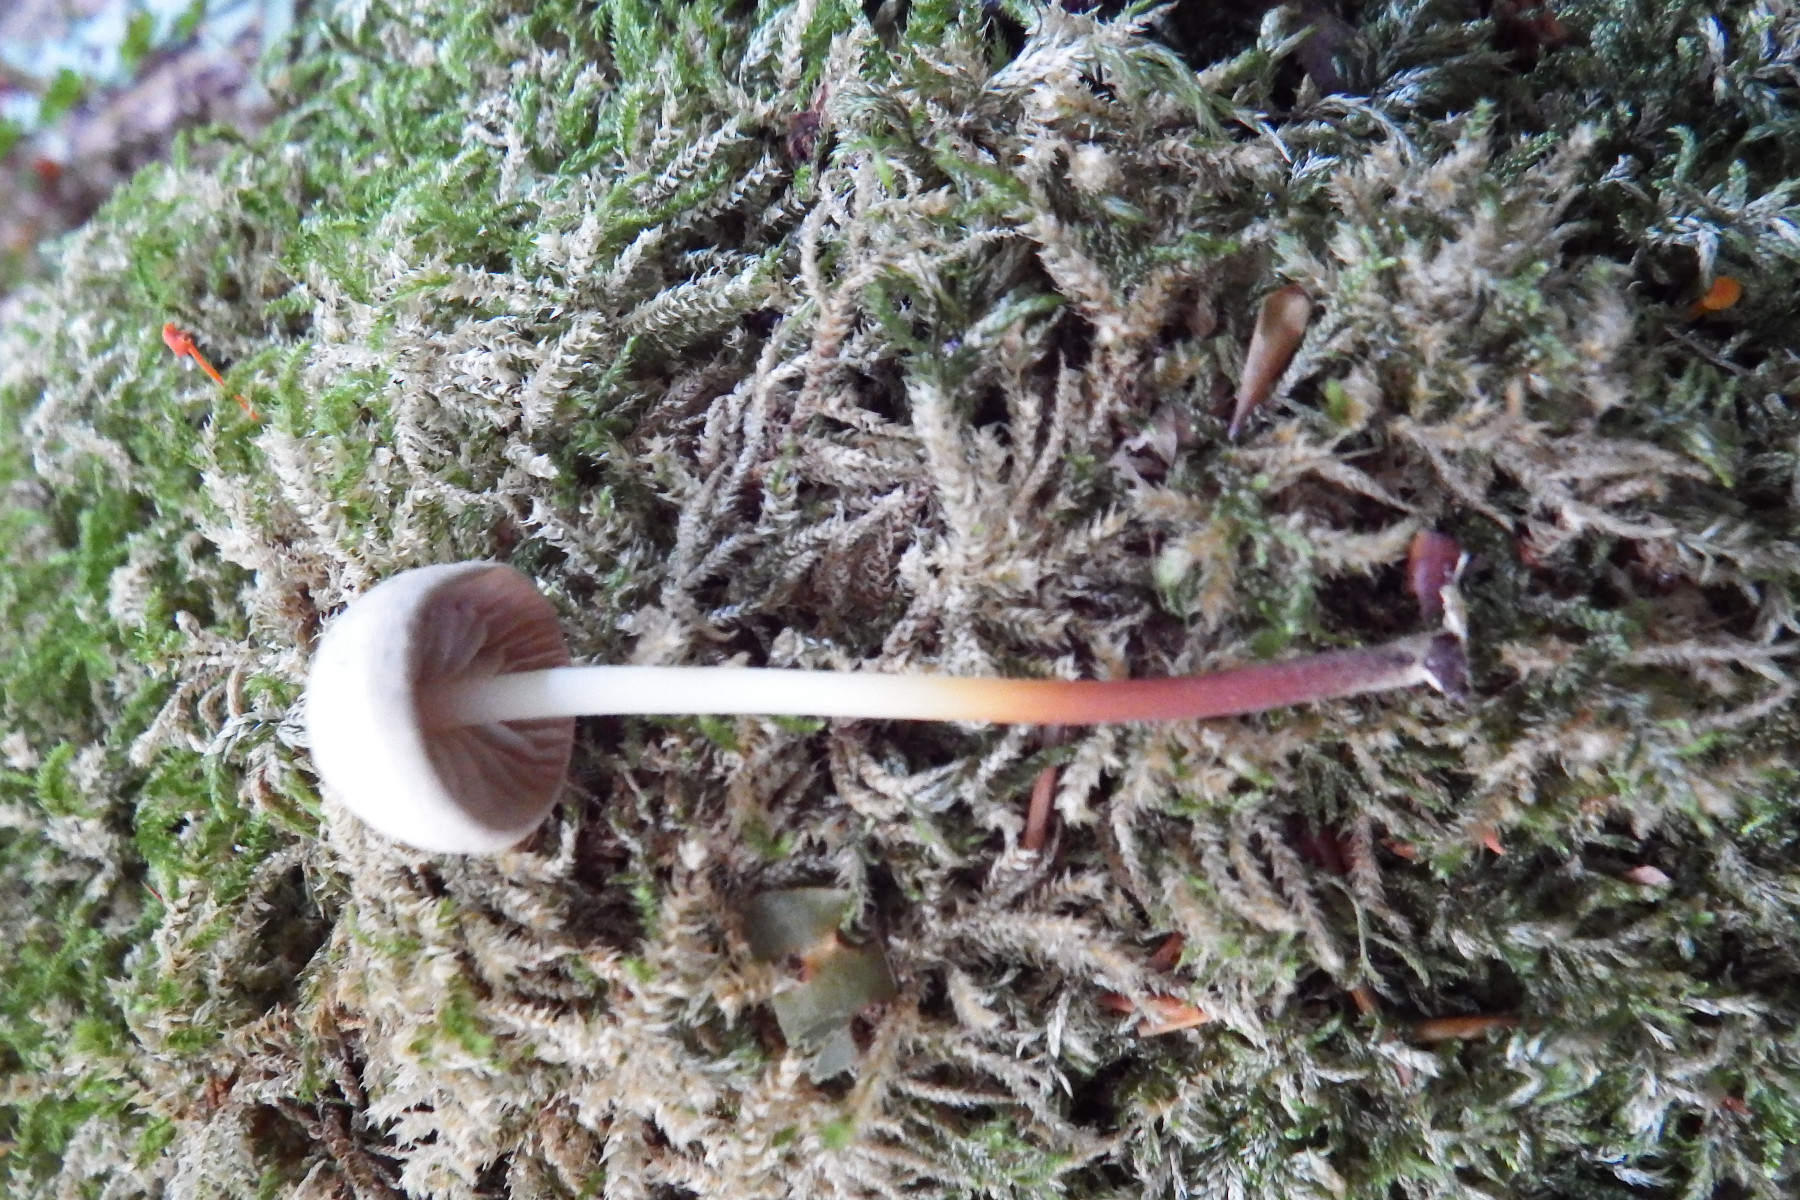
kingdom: Fungi
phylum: Basidiomycota
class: Agaricomycetes
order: Agaricales
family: Marasmiaceae
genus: Marasmius
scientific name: Marasmius wynneae
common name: hvælvet bruskhat
